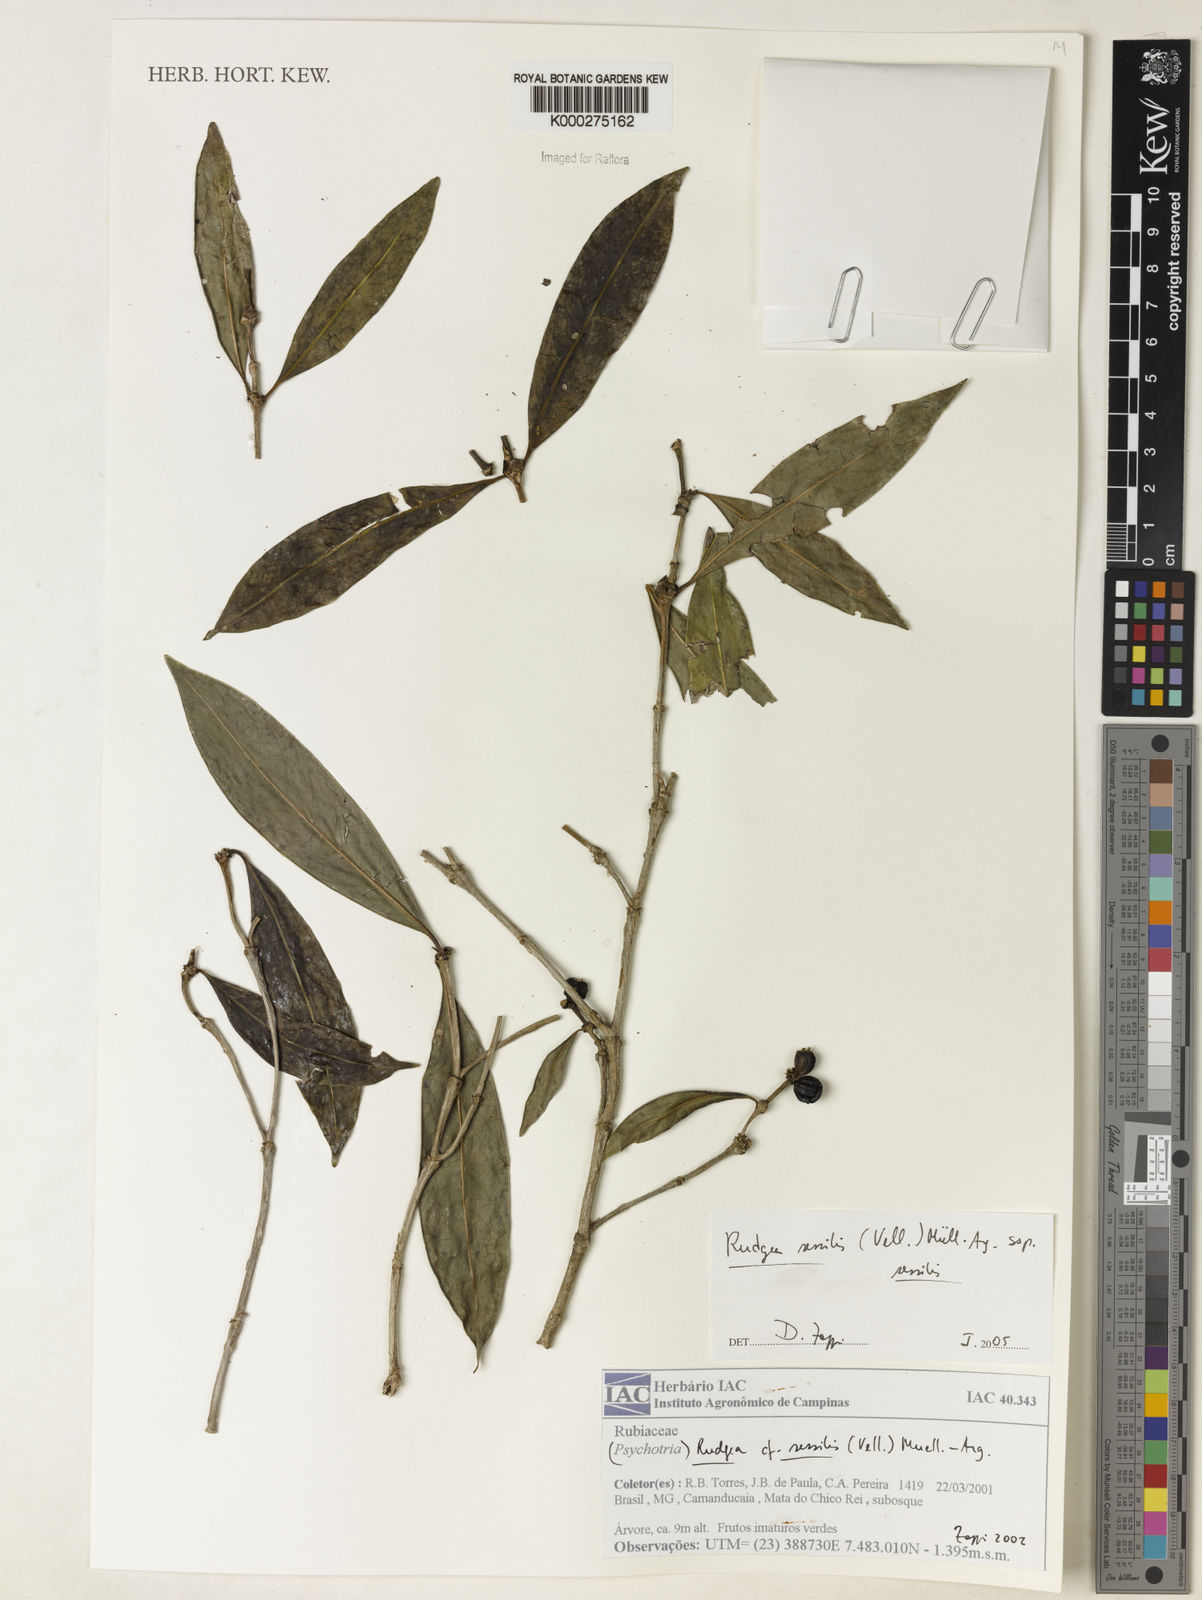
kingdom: Plantae
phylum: Tracheophyta
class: Magnoliopsida
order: Gentianales
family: Rubiaceae
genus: Rudgea
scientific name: Rudgea sessilis
